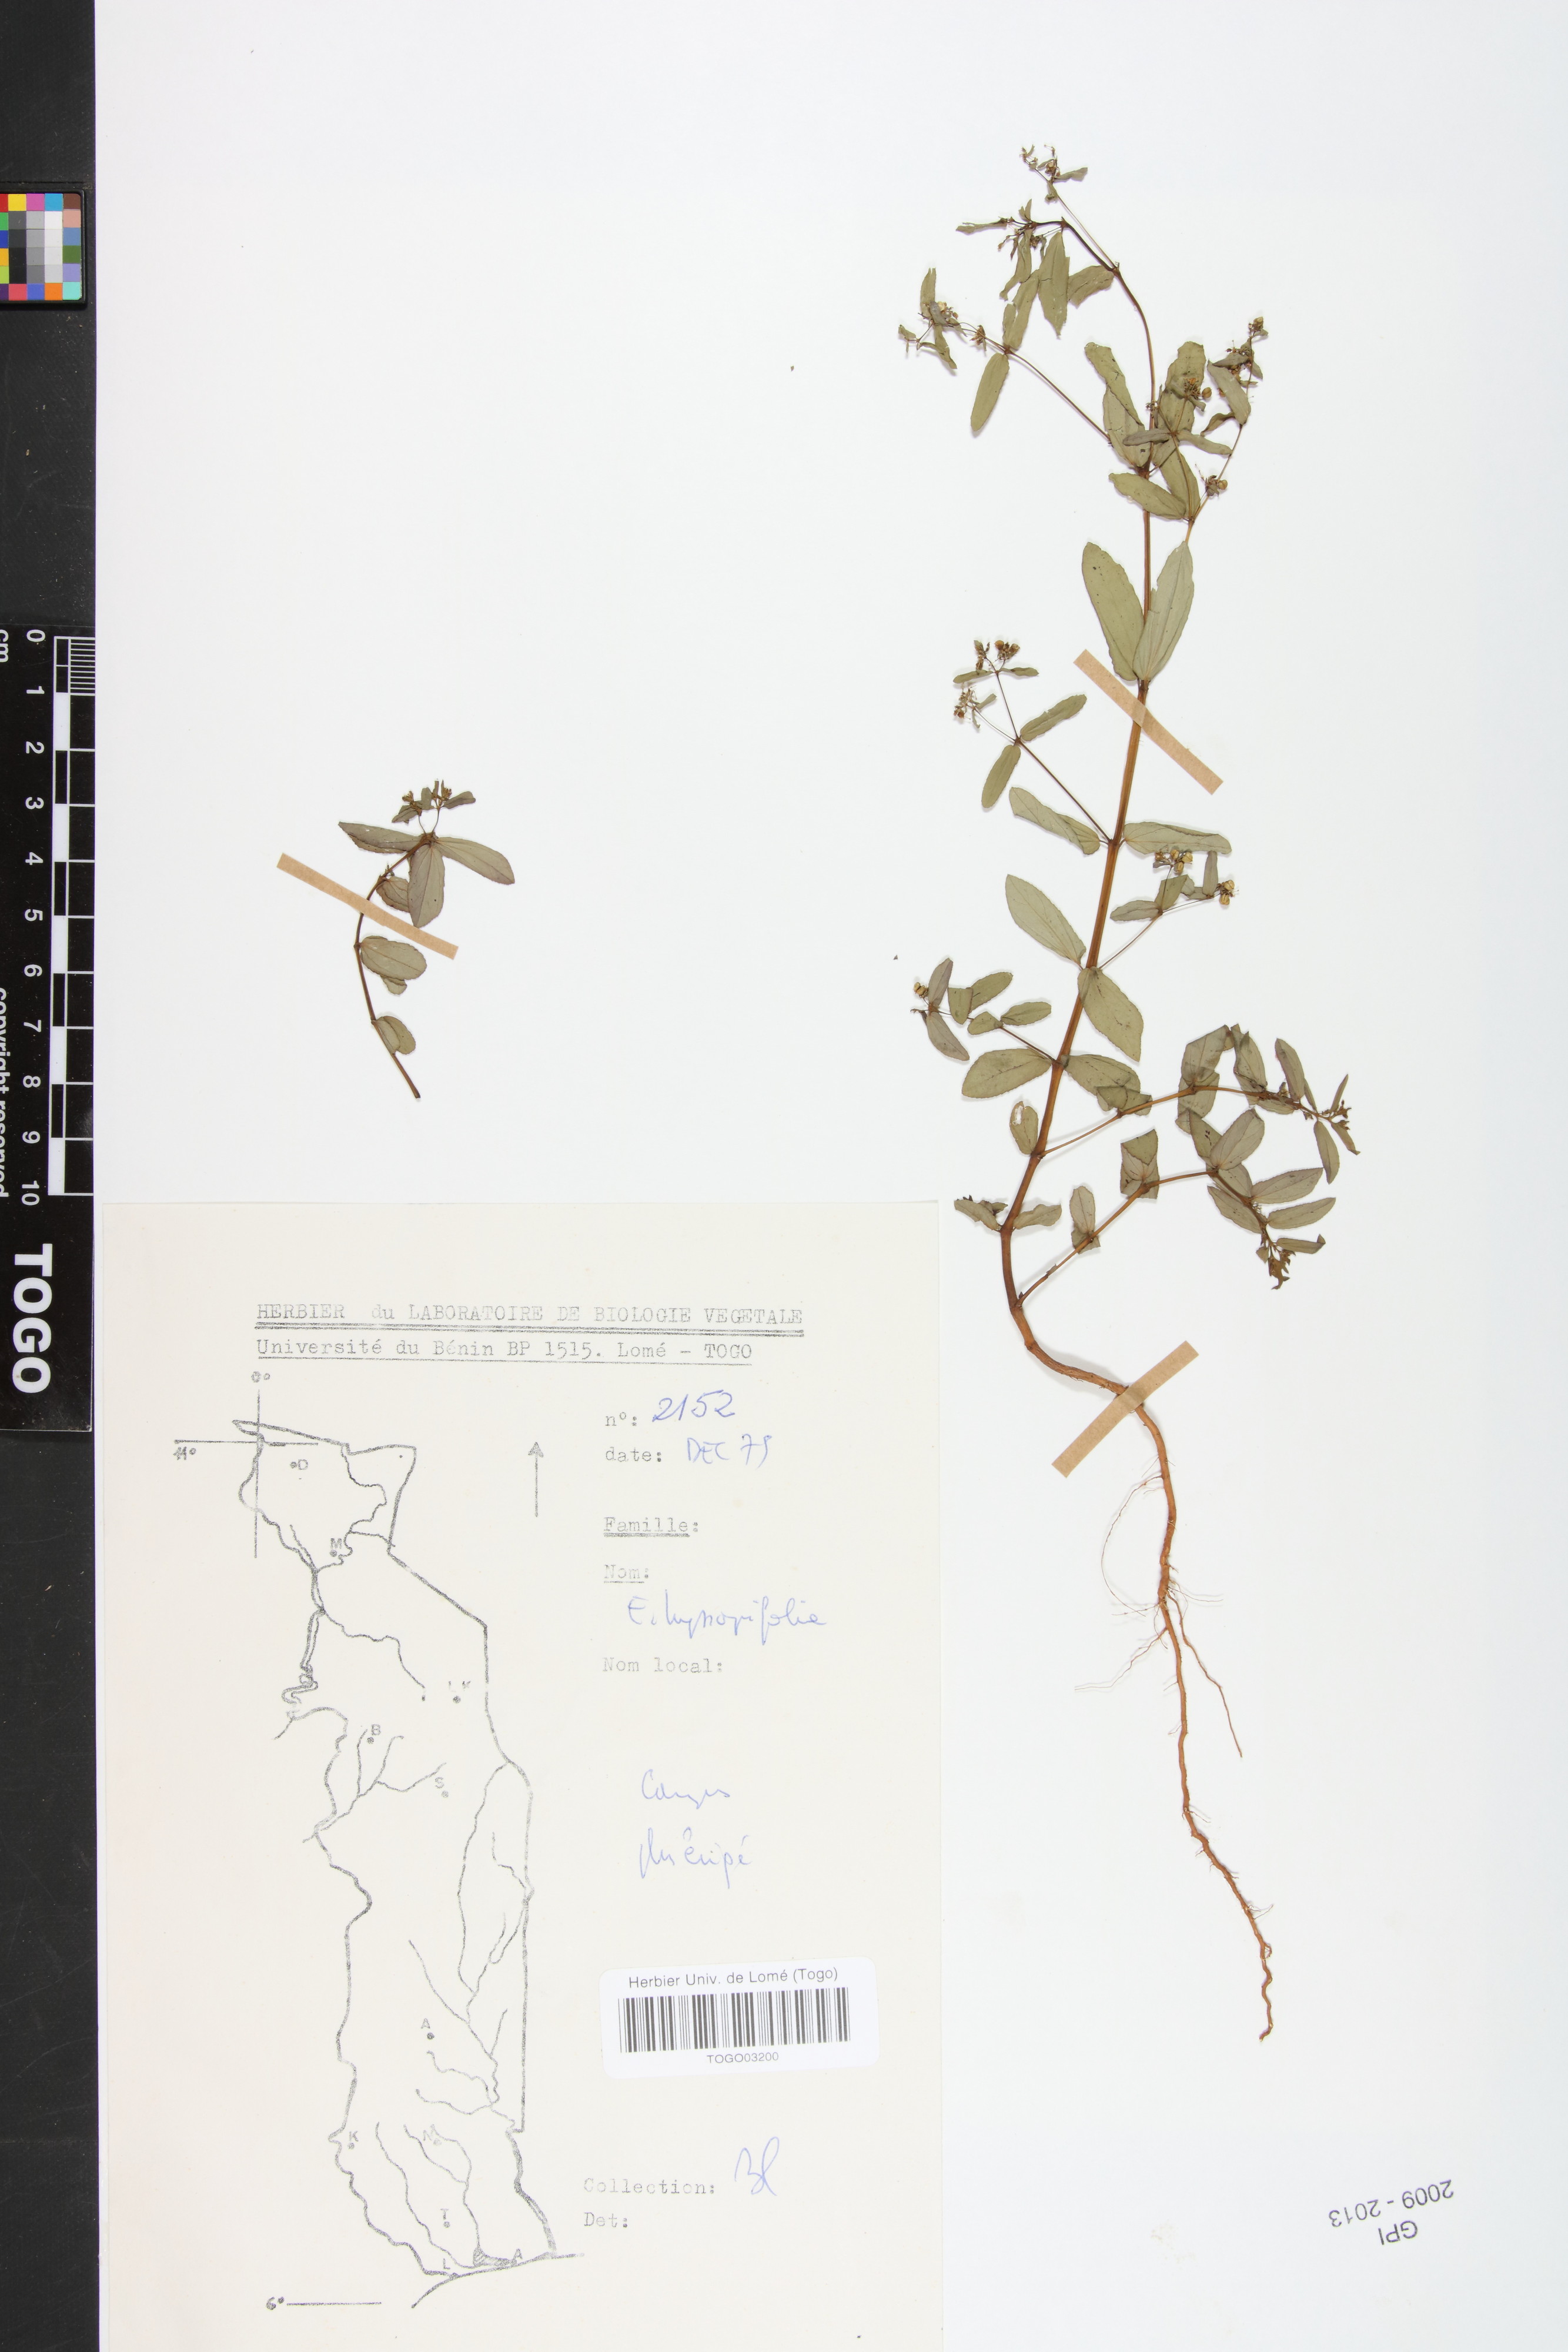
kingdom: Plantae
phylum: Tracheophyta
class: Magnoliopsida
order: Malpighiales
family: Euphorbiaceae
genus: Euphorbia
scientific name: Euphorbia hyssopifolia
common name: Hyssopleaf sandmat
